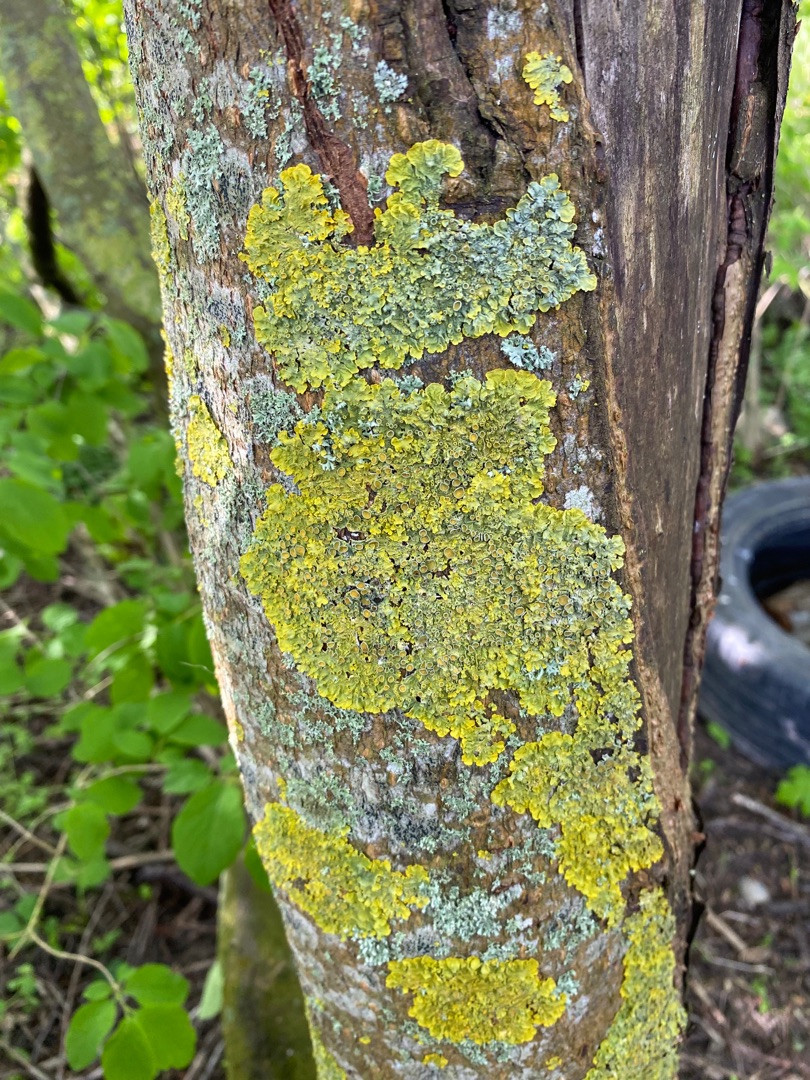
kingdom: Fungi
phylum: Ascomycota
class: Lecanoromycetes
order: Teloschistales
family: Teloschistaceae
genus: Xanthoria
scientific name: Xanthoria parietina
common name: Almindelig væggelav
